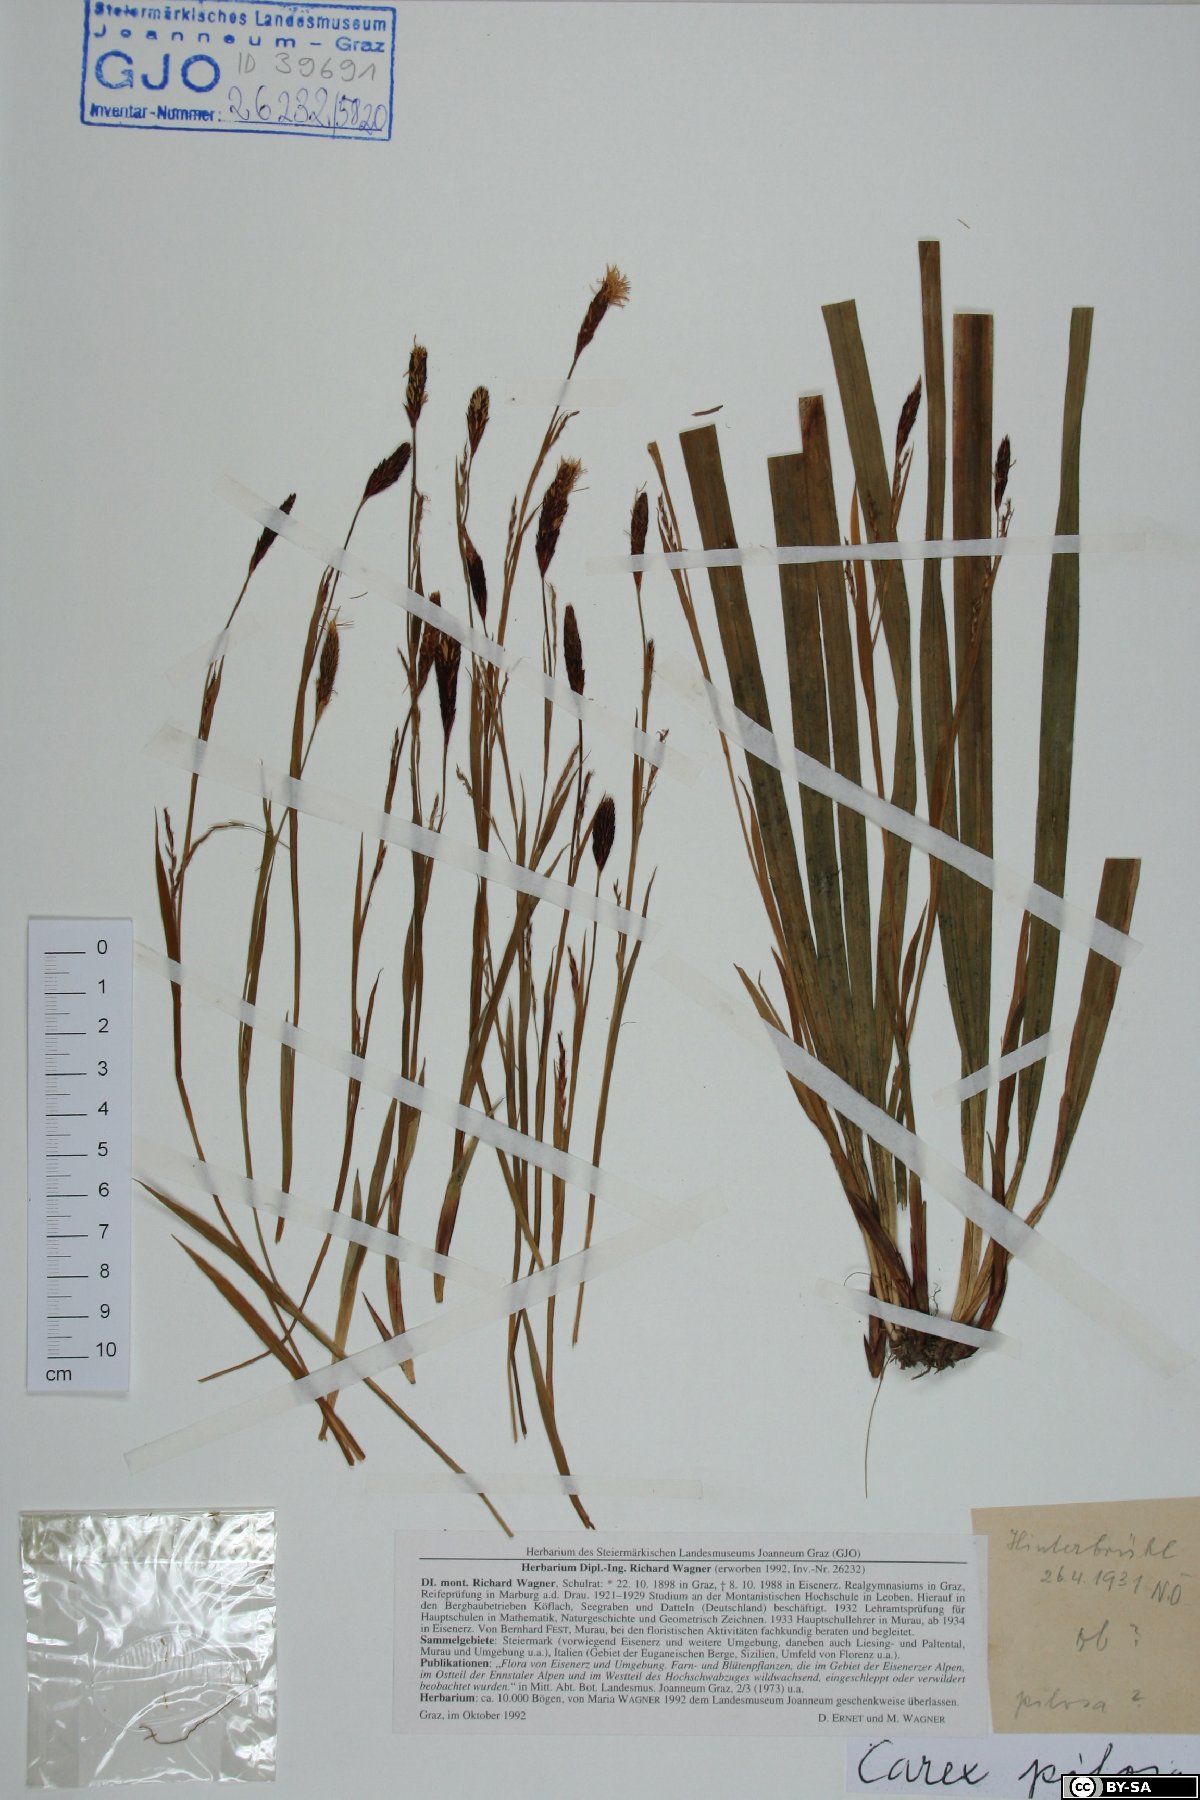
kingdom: Plantae
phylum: Tracheophyta
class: Liliopsida
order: Poales
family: Cyperaceae
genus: Carex
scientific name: Carex pilosa
